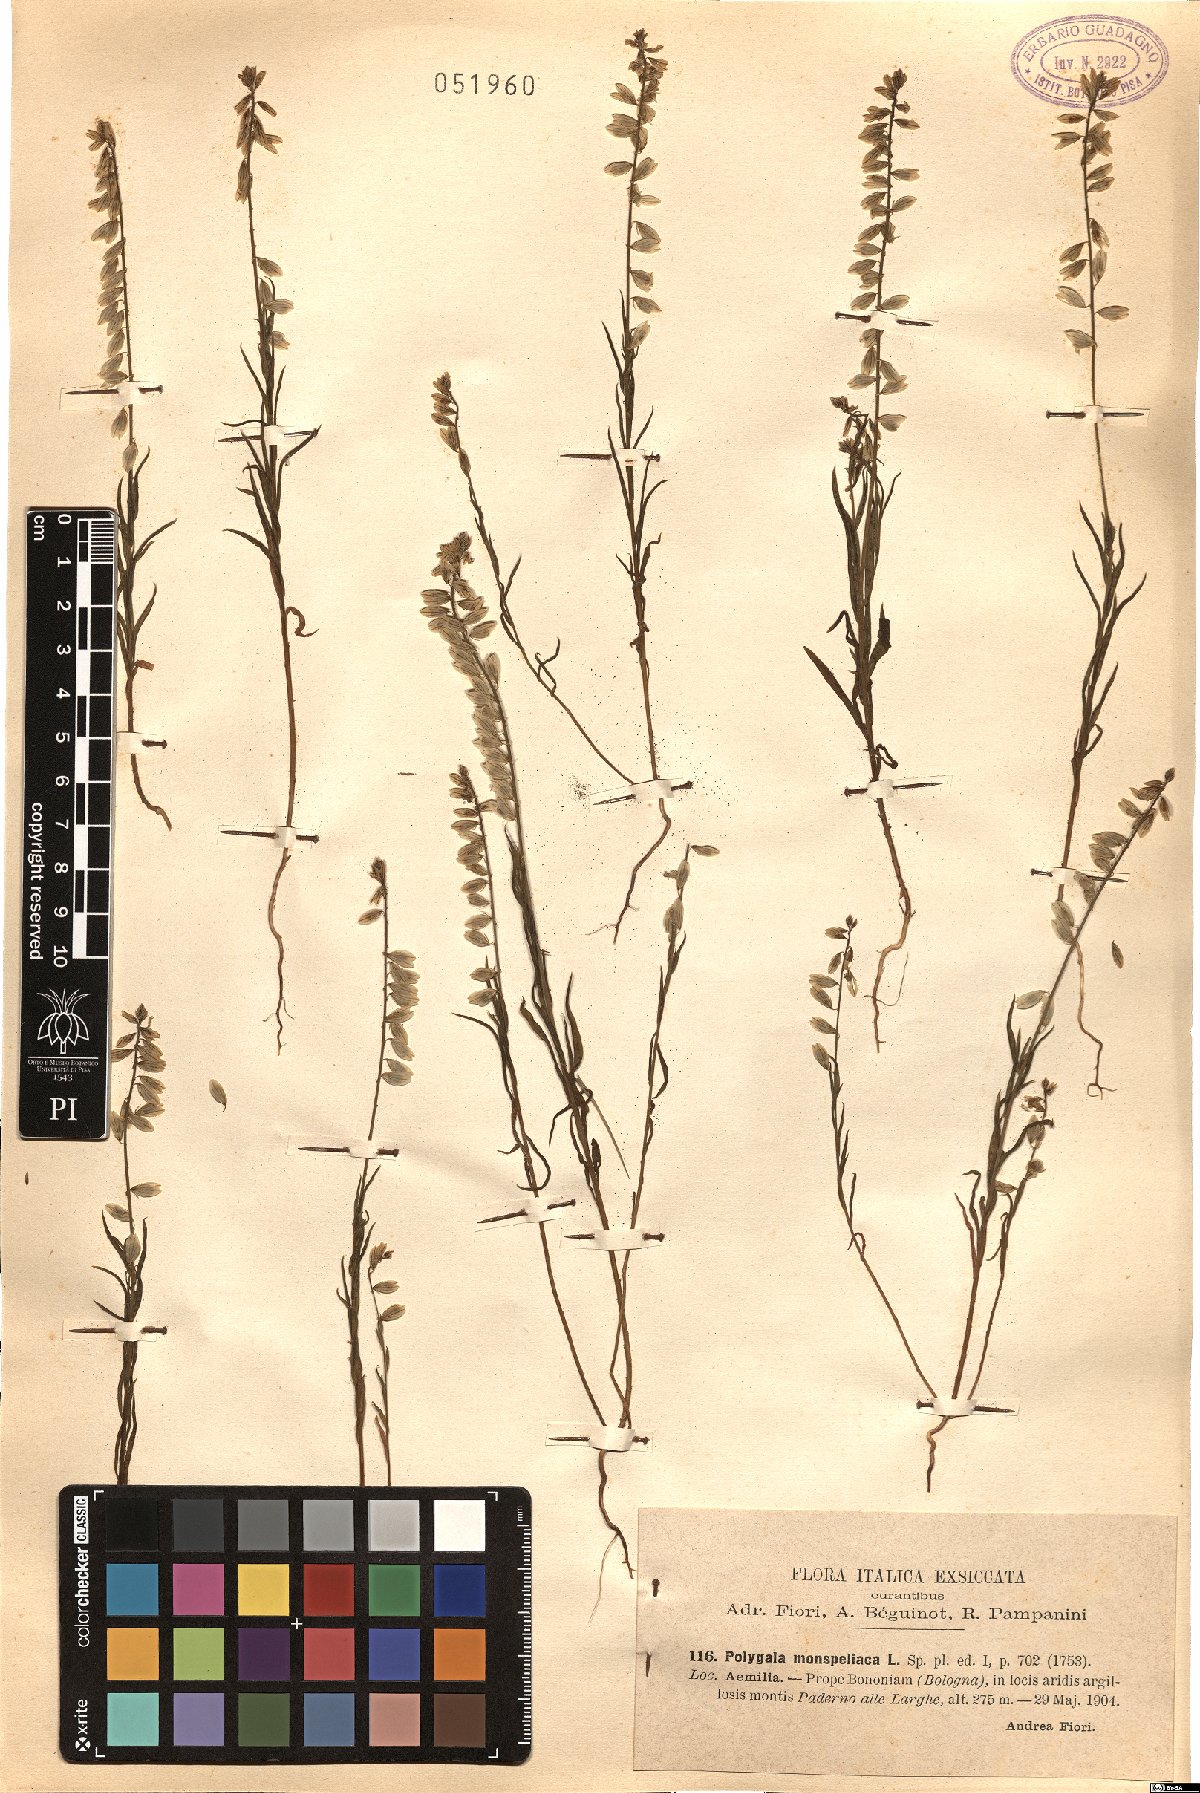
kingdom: Plantae
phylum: Tracheophyta
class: Magnoliopsida
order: Fabales
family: Polygalaceae
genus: Polygala
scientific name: Polygala monspeliaca
